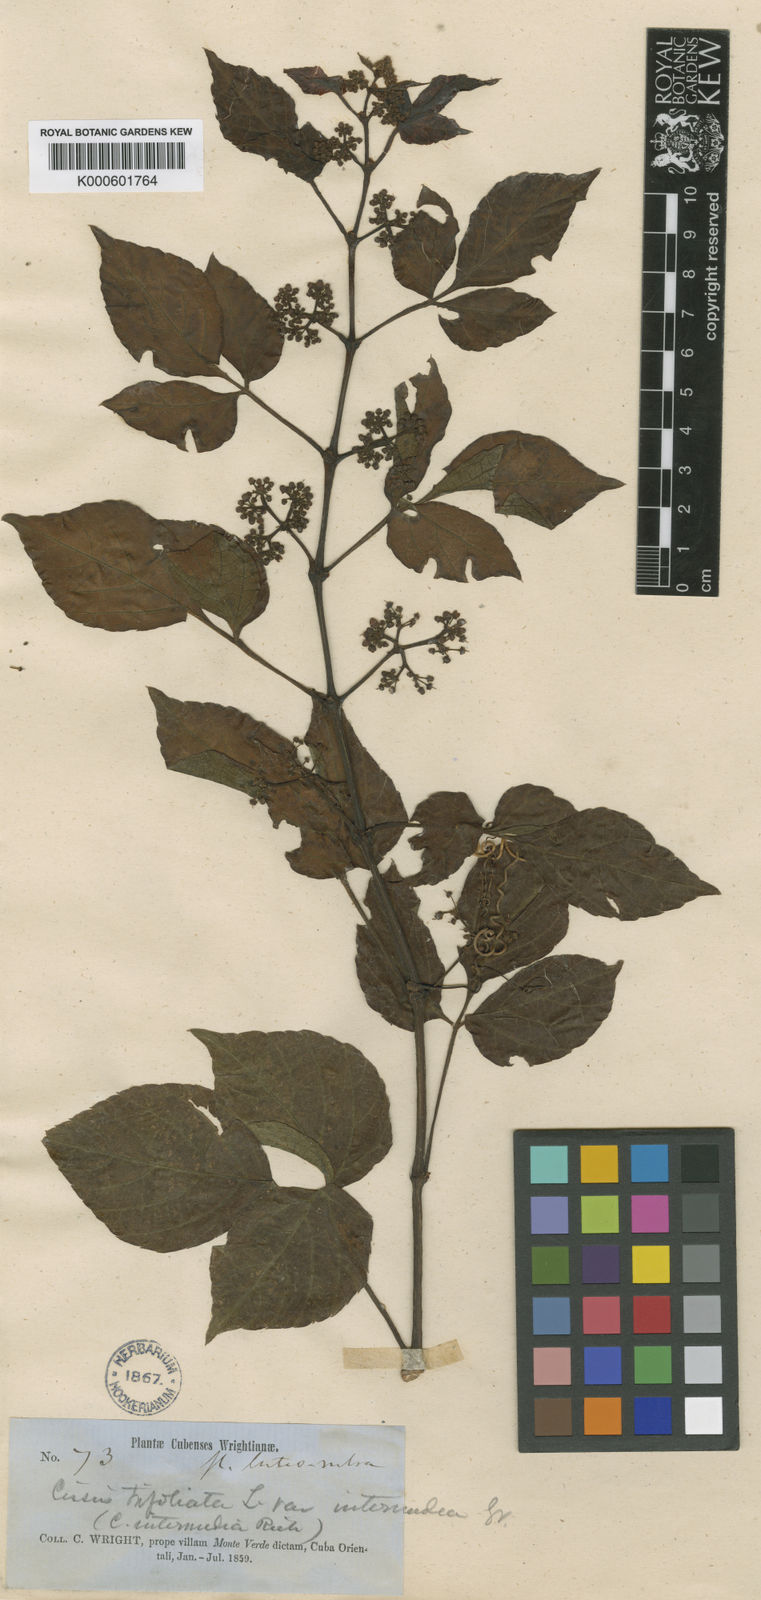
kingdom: Plantae
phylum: Tracheophyta
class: Magnoliopsida
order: Vitales
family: Vitaceae
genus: Cissus
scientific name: Cissus intermedia
